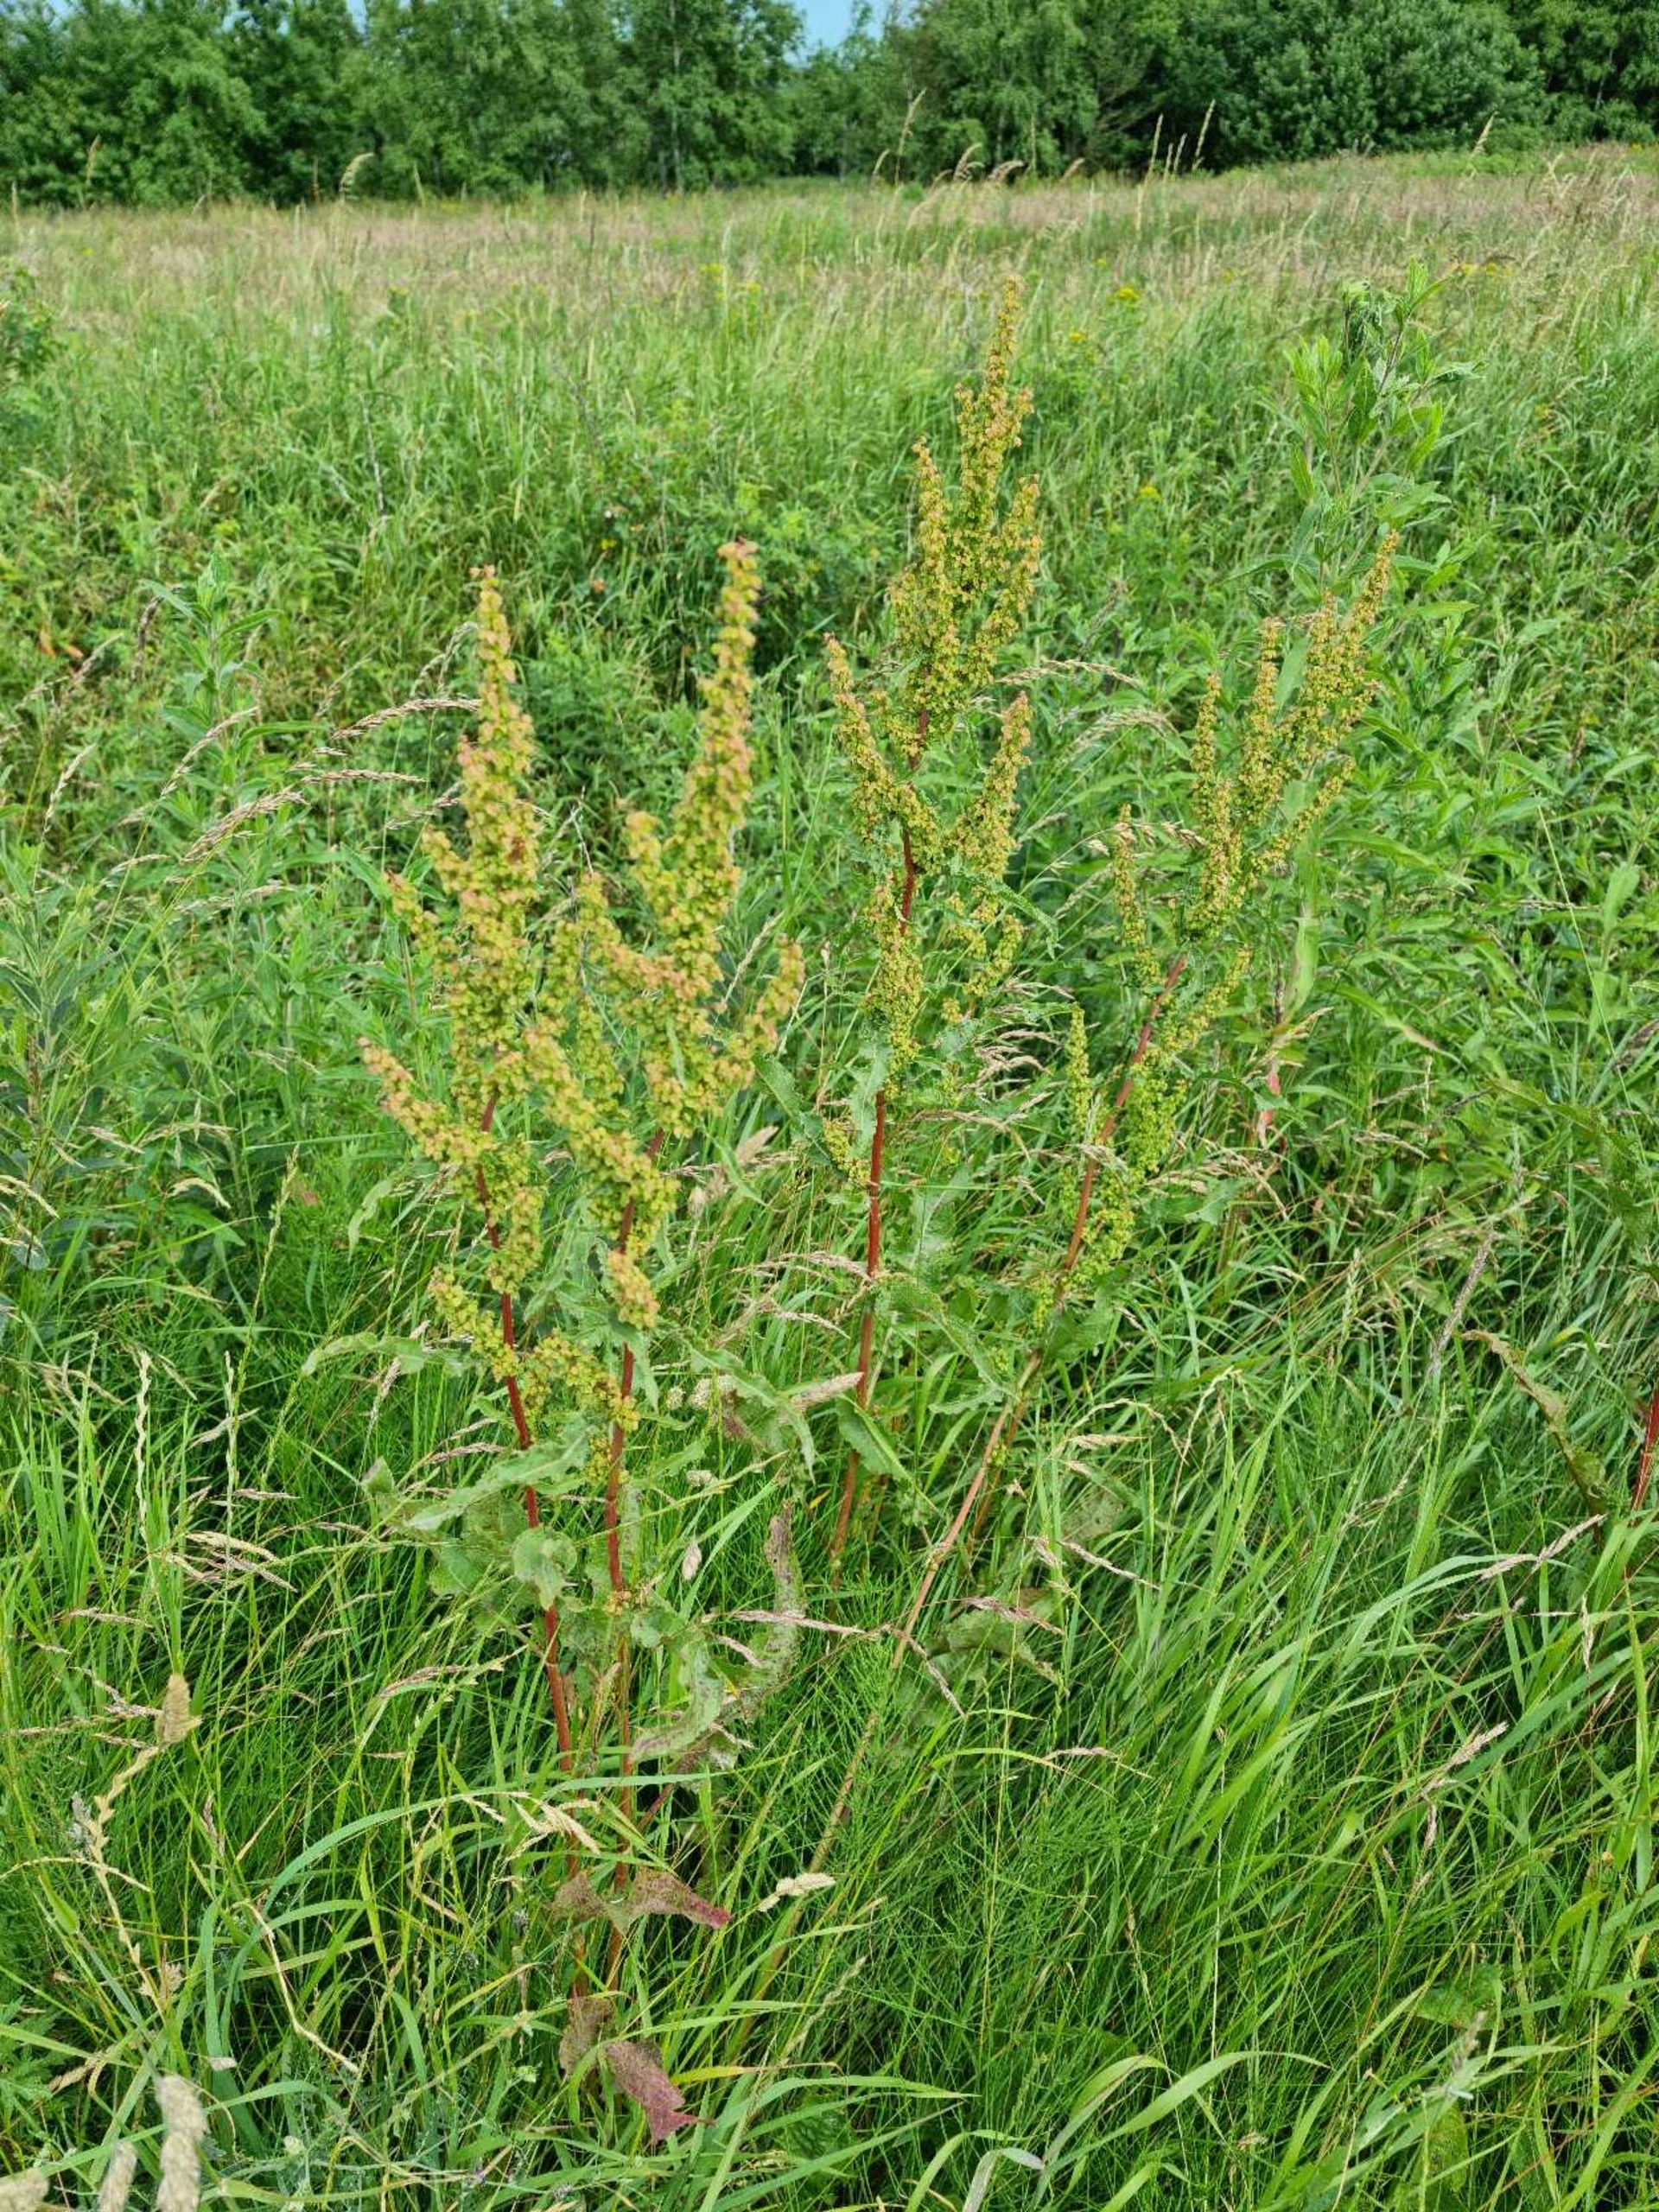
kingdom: Plantae
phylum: Tracheophyta
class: Magnoliopsida
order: Caryophyllales
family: Polygonaceae
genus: Rumex
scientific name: Rumex crispus
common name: Kruset skræppe
